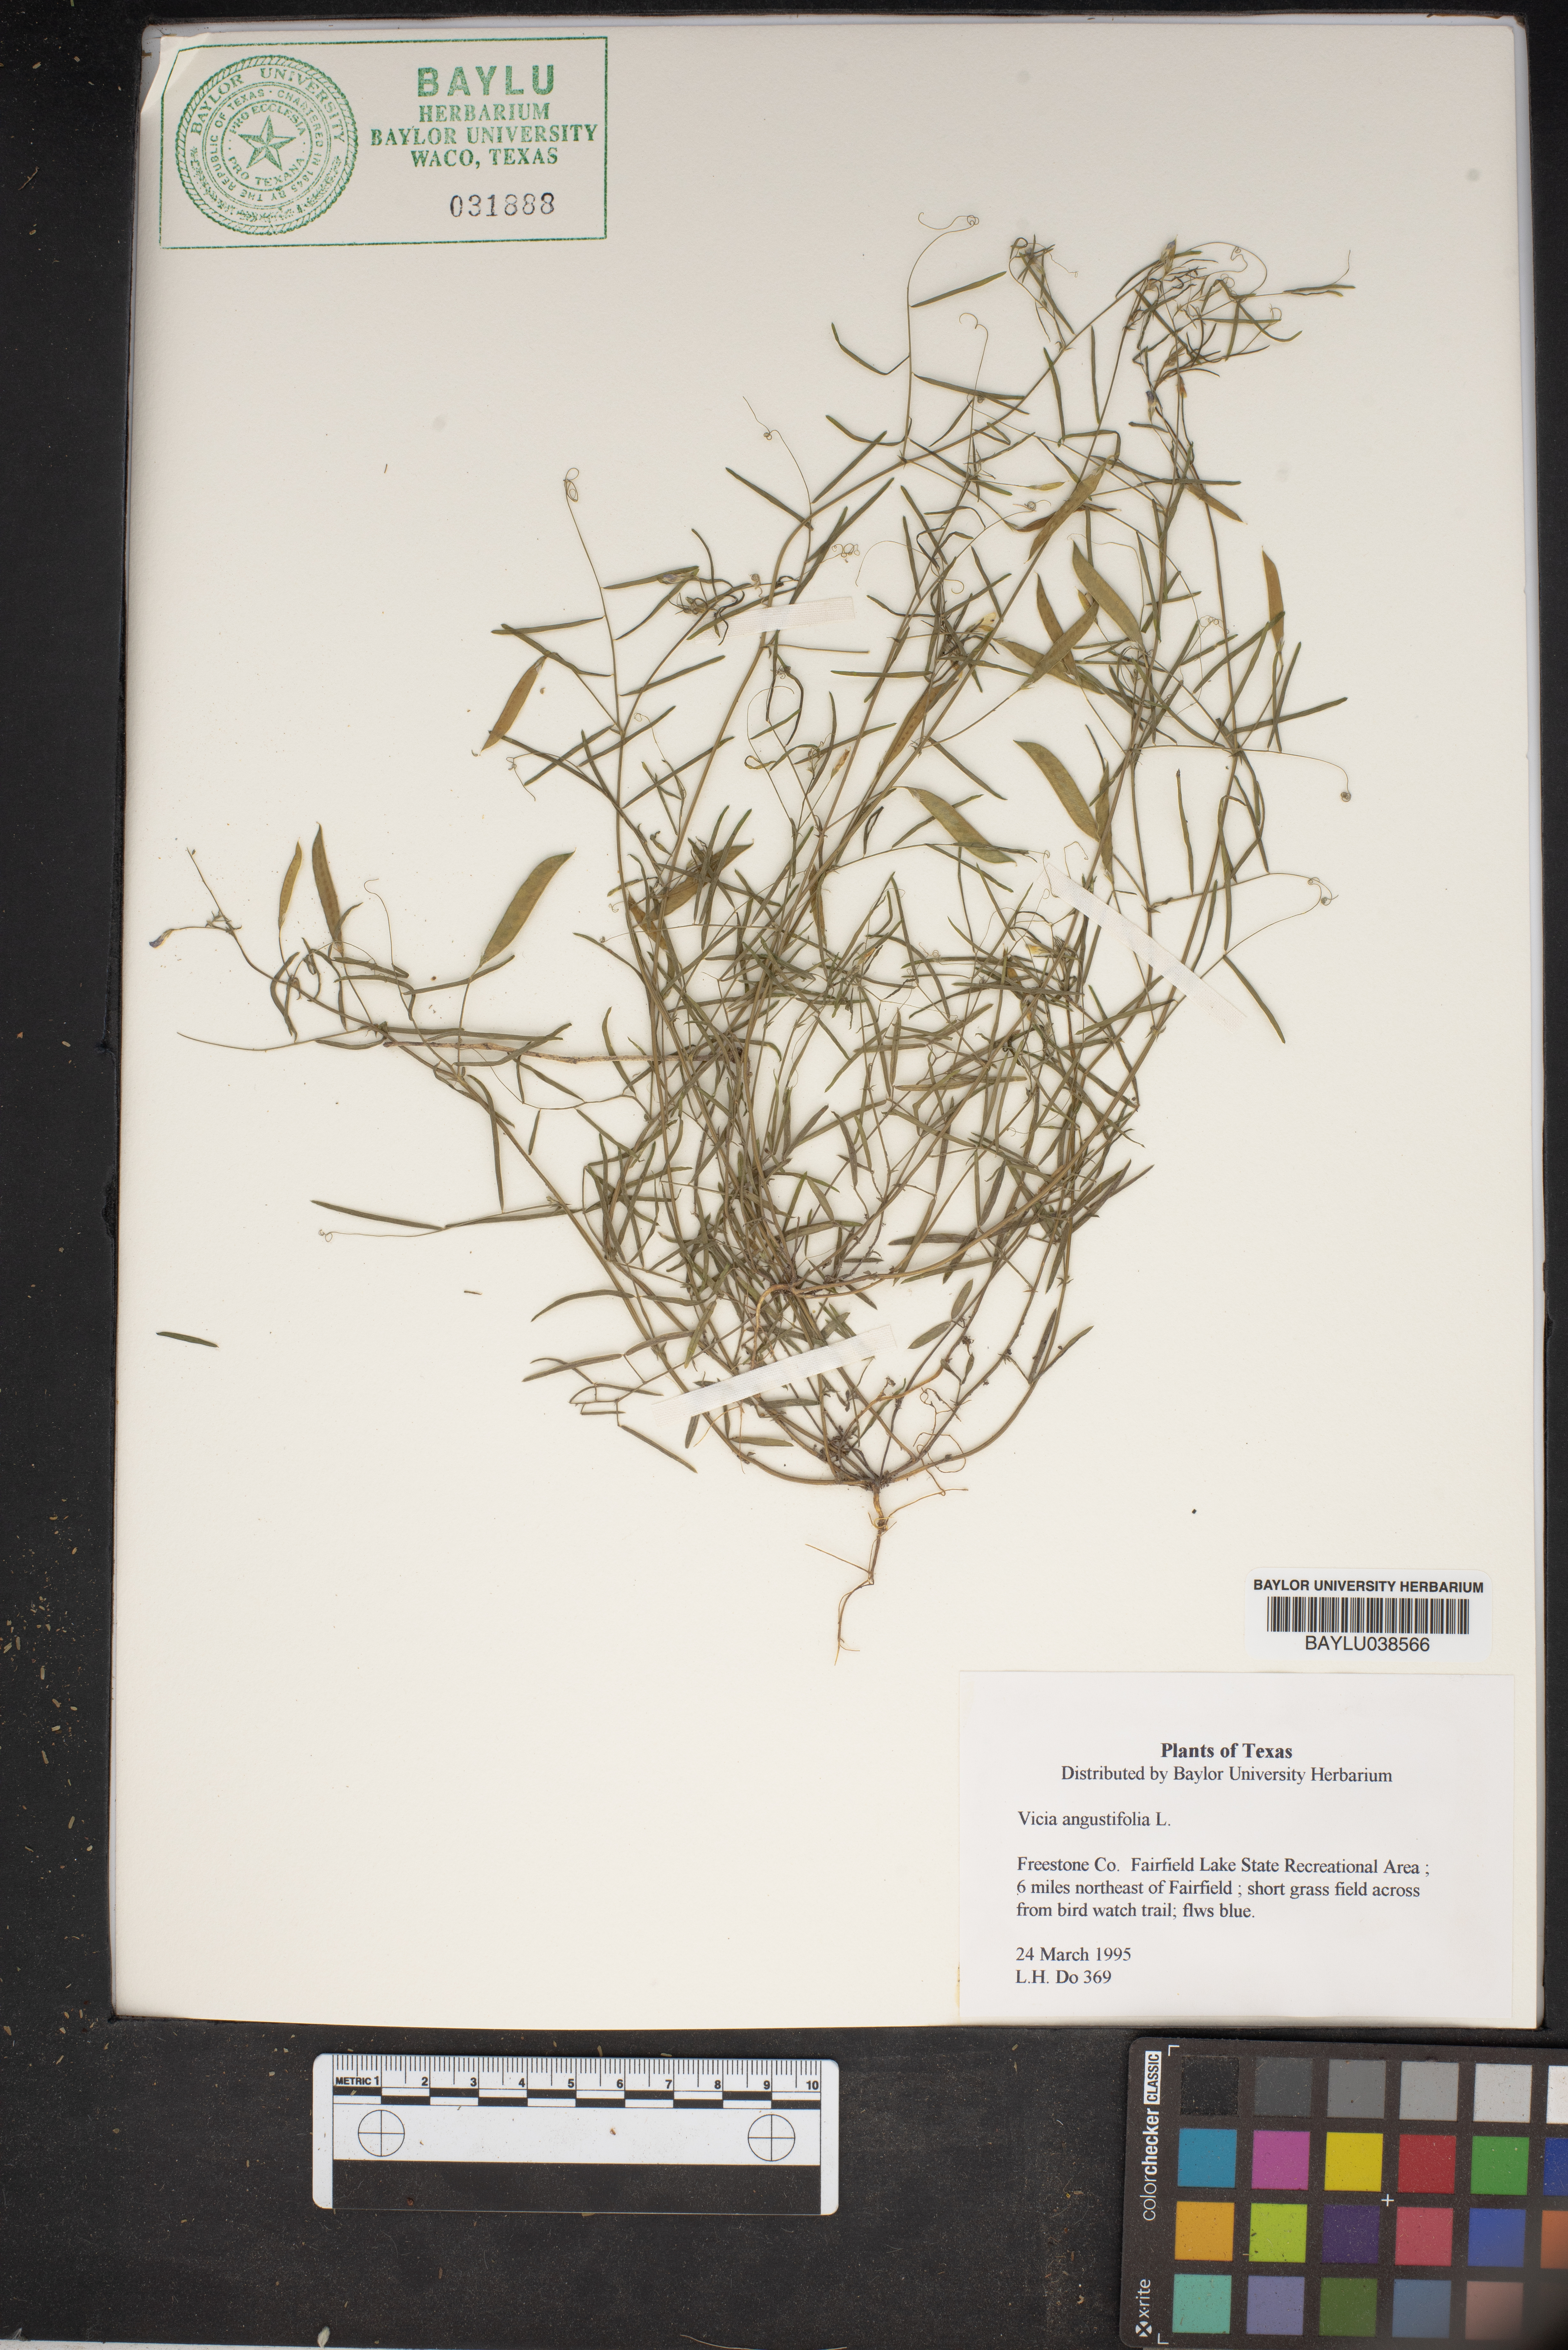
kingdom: Plantae
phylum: Tracheophyta
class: Magnoliopsida
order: Fabales
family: Fabaceae
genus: Vicia
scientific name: Vicia sativa
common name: Garden vetch
